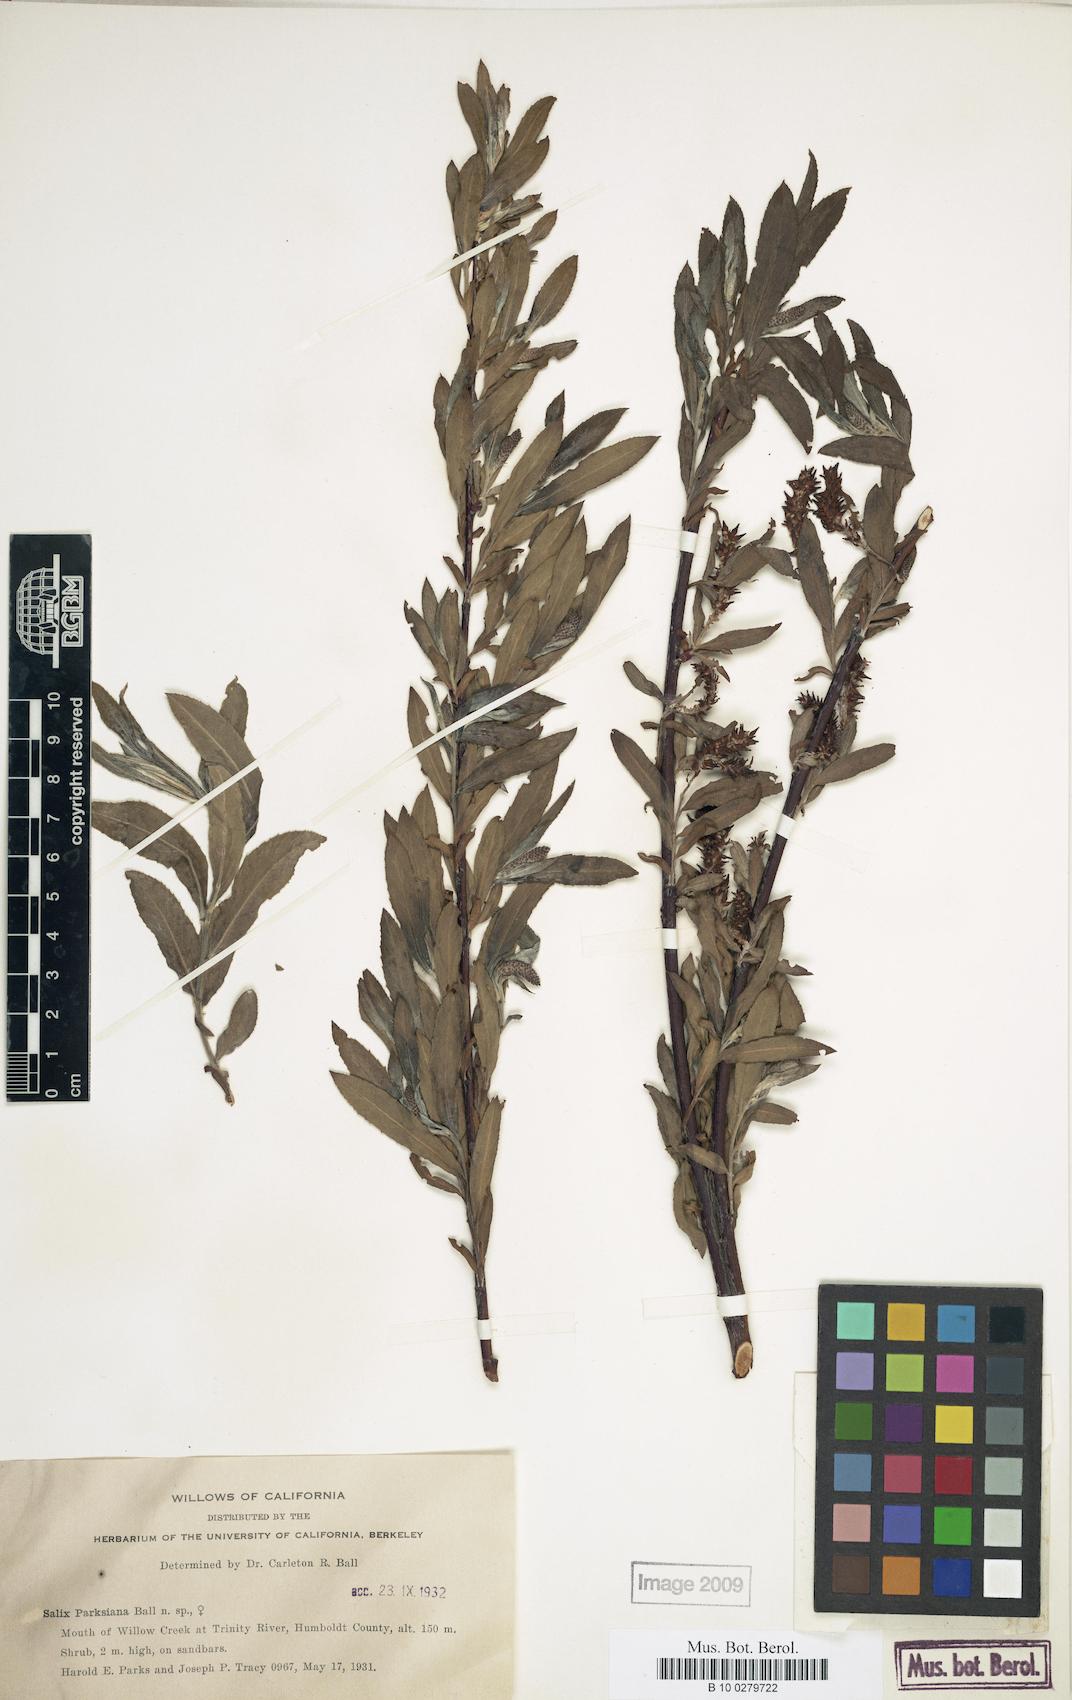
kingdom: Plantae
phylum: Tracheophyta
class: Magnoliopsida
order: Malpighiales
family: Salicaceae
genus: Salix
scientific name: Salix melanopsis
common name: Dusky willow
